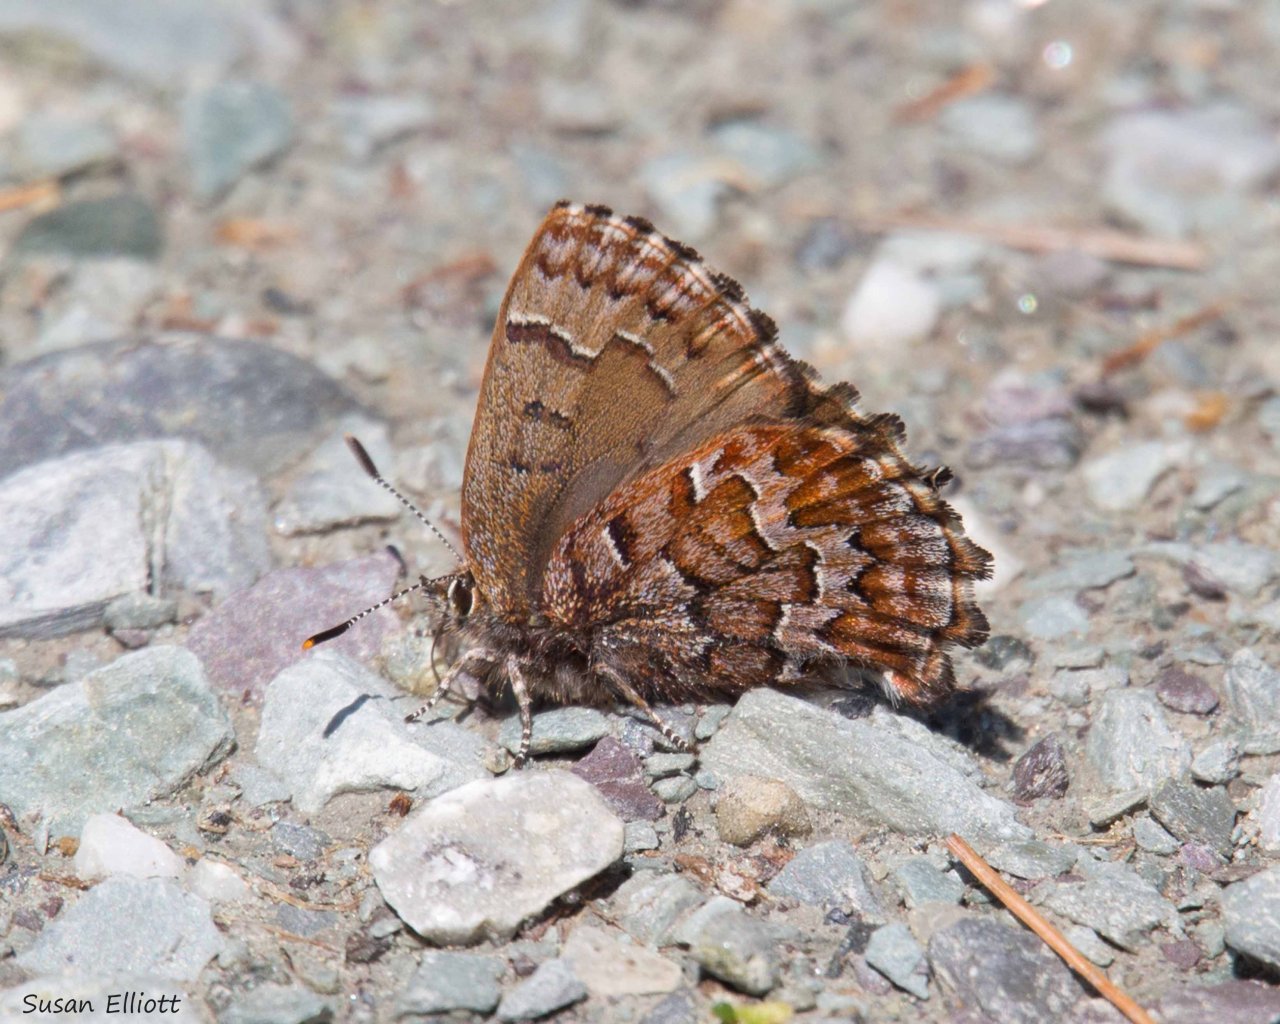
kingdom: Animalia
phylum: Arthropoda
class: Insecta
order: Lepidoptera
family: Lycaenidae
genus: Incisalia
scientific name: Incisalia niphon
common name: Eastern Pine Elfin
